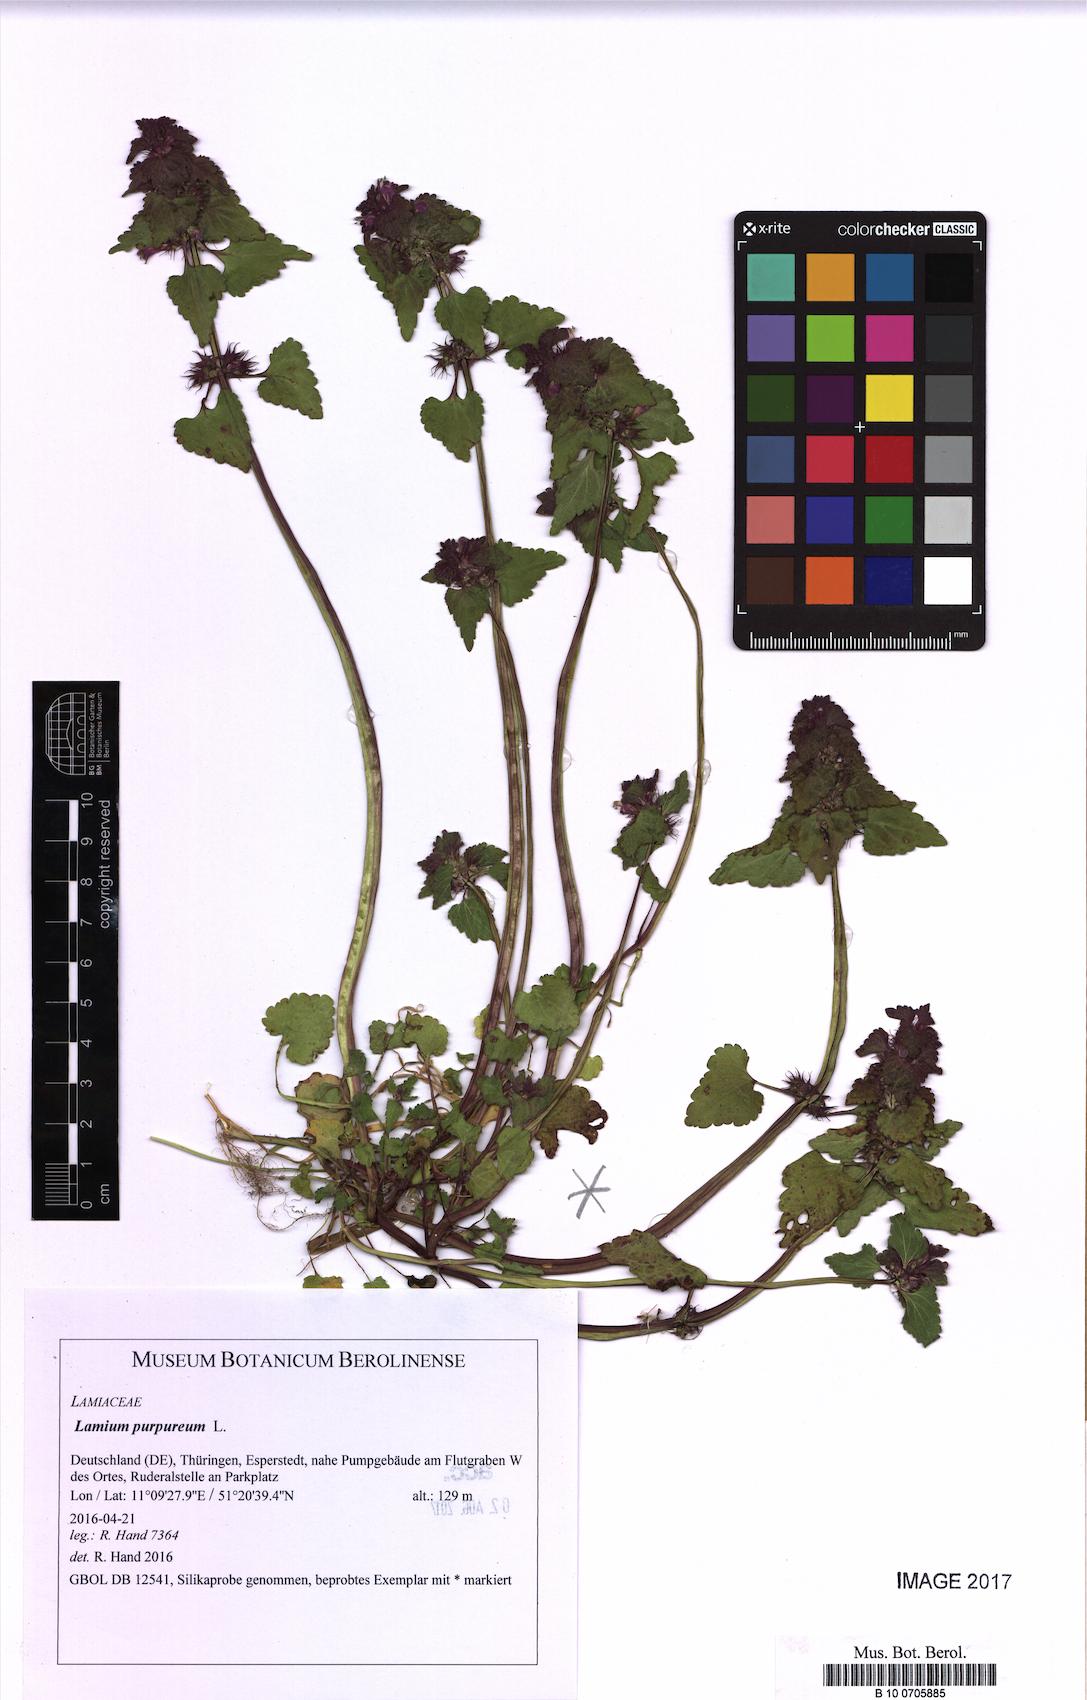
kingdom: Plantae
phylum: Tracheophyta
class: Magnoliopsida
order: Lamiales
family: Lamiaceae
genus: Lamium
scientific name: Lamium purpureum
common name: Red dead-nettle
